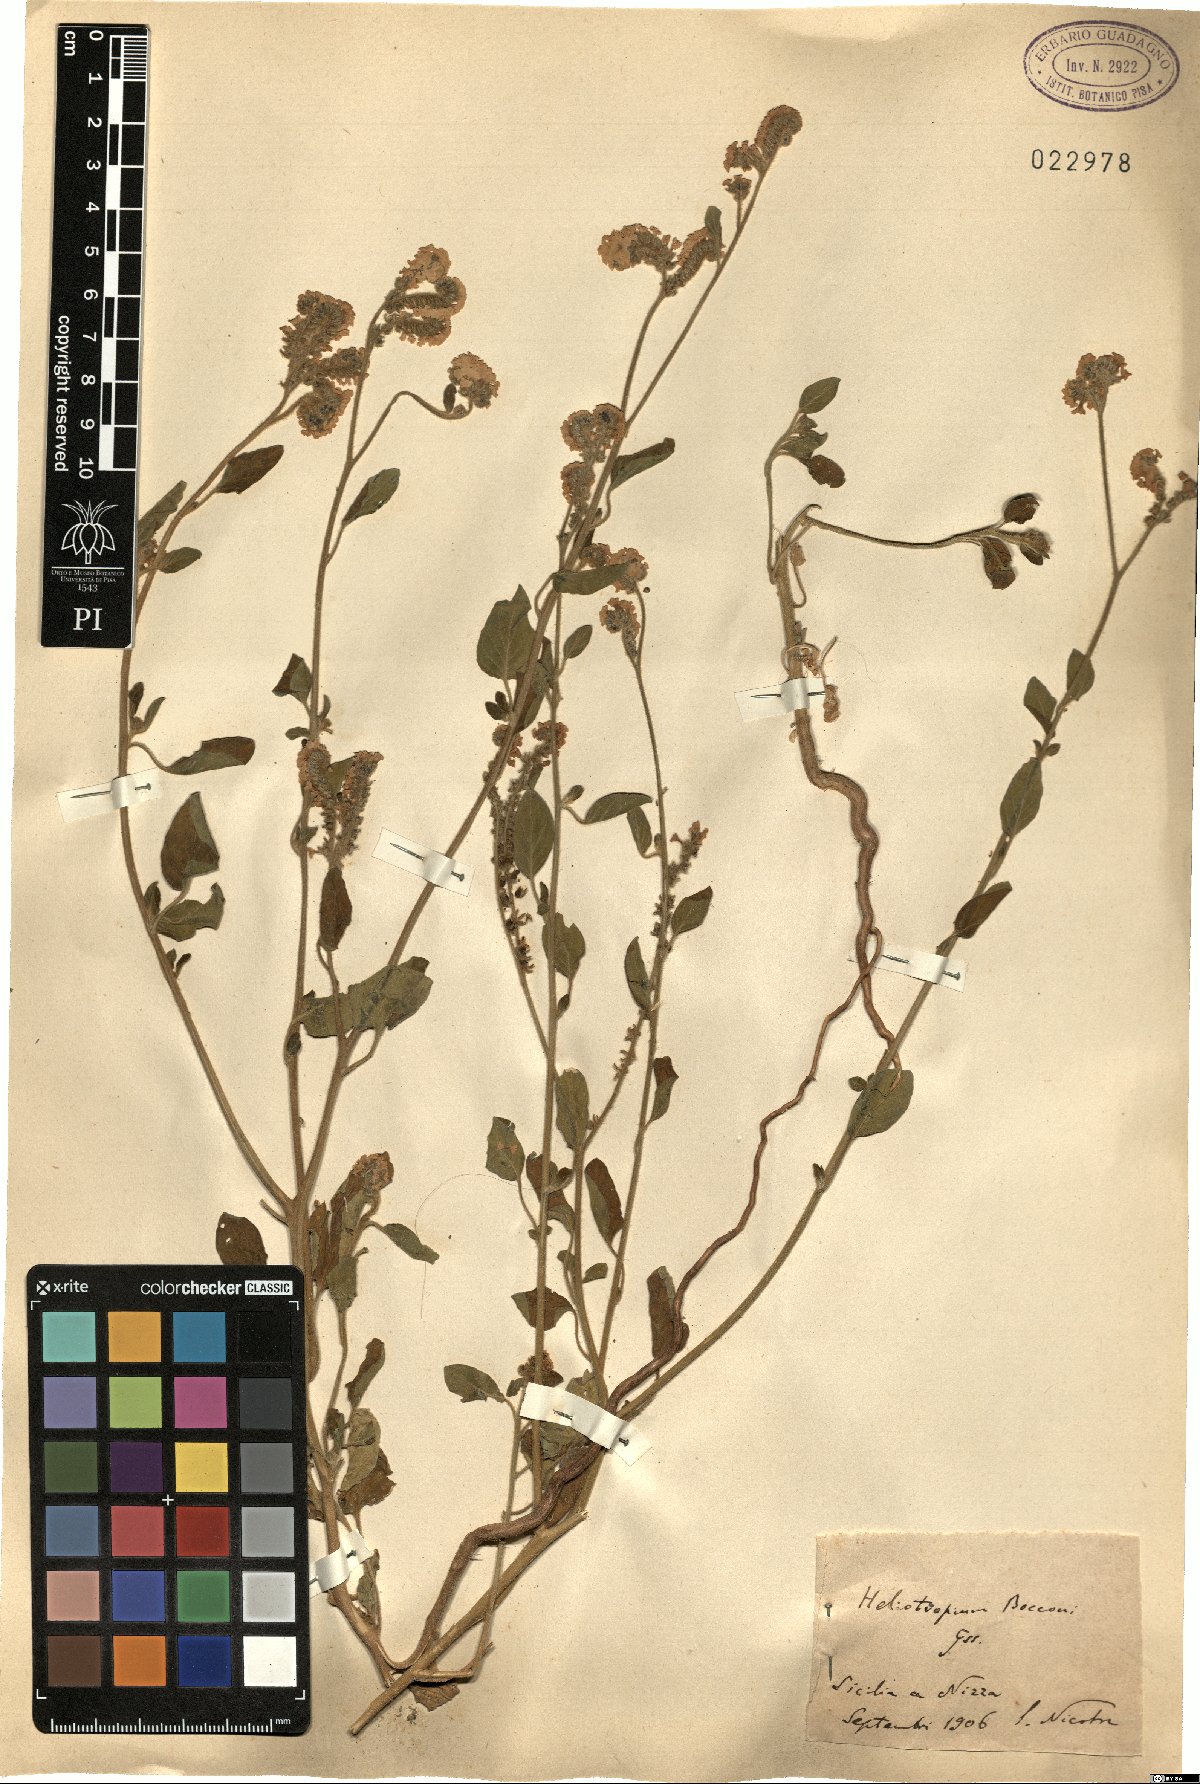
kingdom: Plantae
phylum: Tracheophyta
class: Magnoliopsida
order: Boraginales
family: Heliotropiaceae
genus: Heliotropium
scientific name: Heliotropium suaveolens
